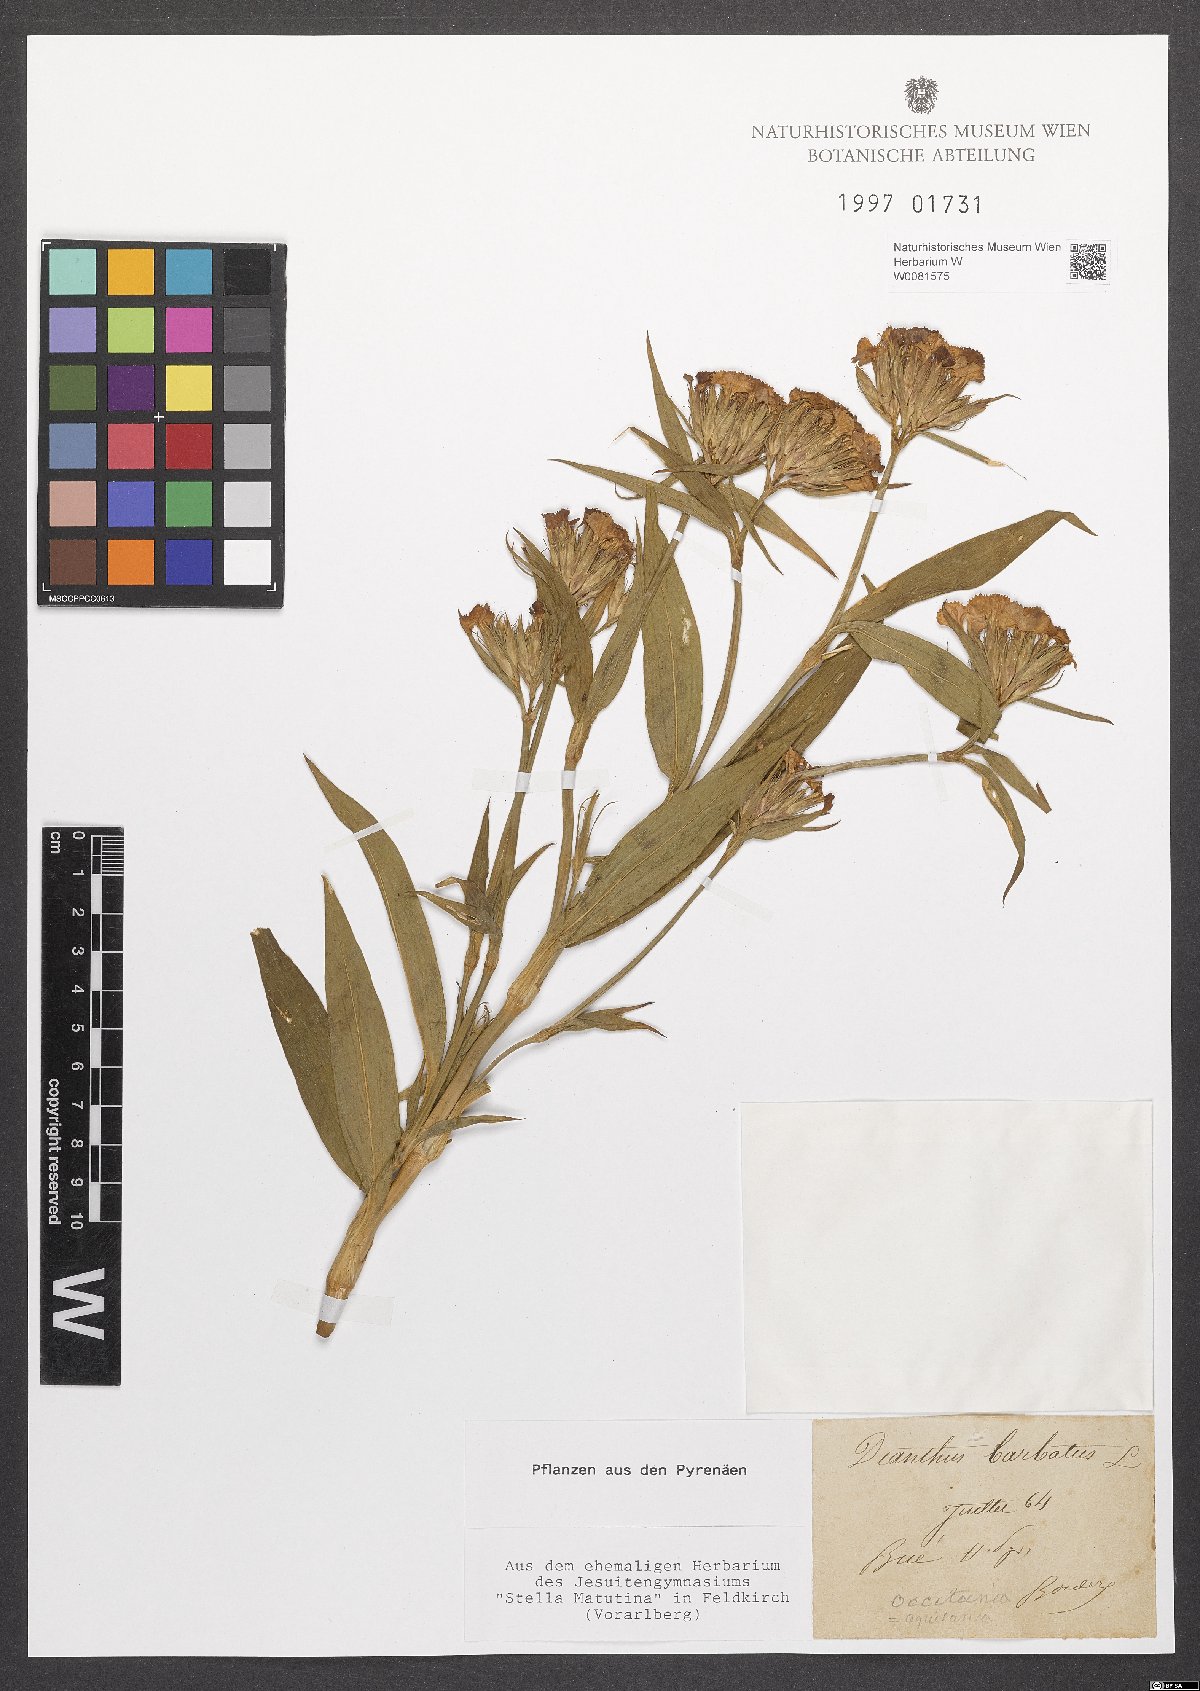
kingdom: Plantae
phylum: Tracheophyta
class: Magnoliopsida
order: Caryophyllales
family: Caryophyllaceae
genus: Dianthus
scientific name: Dianthus barbatus
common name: Sweet-william
